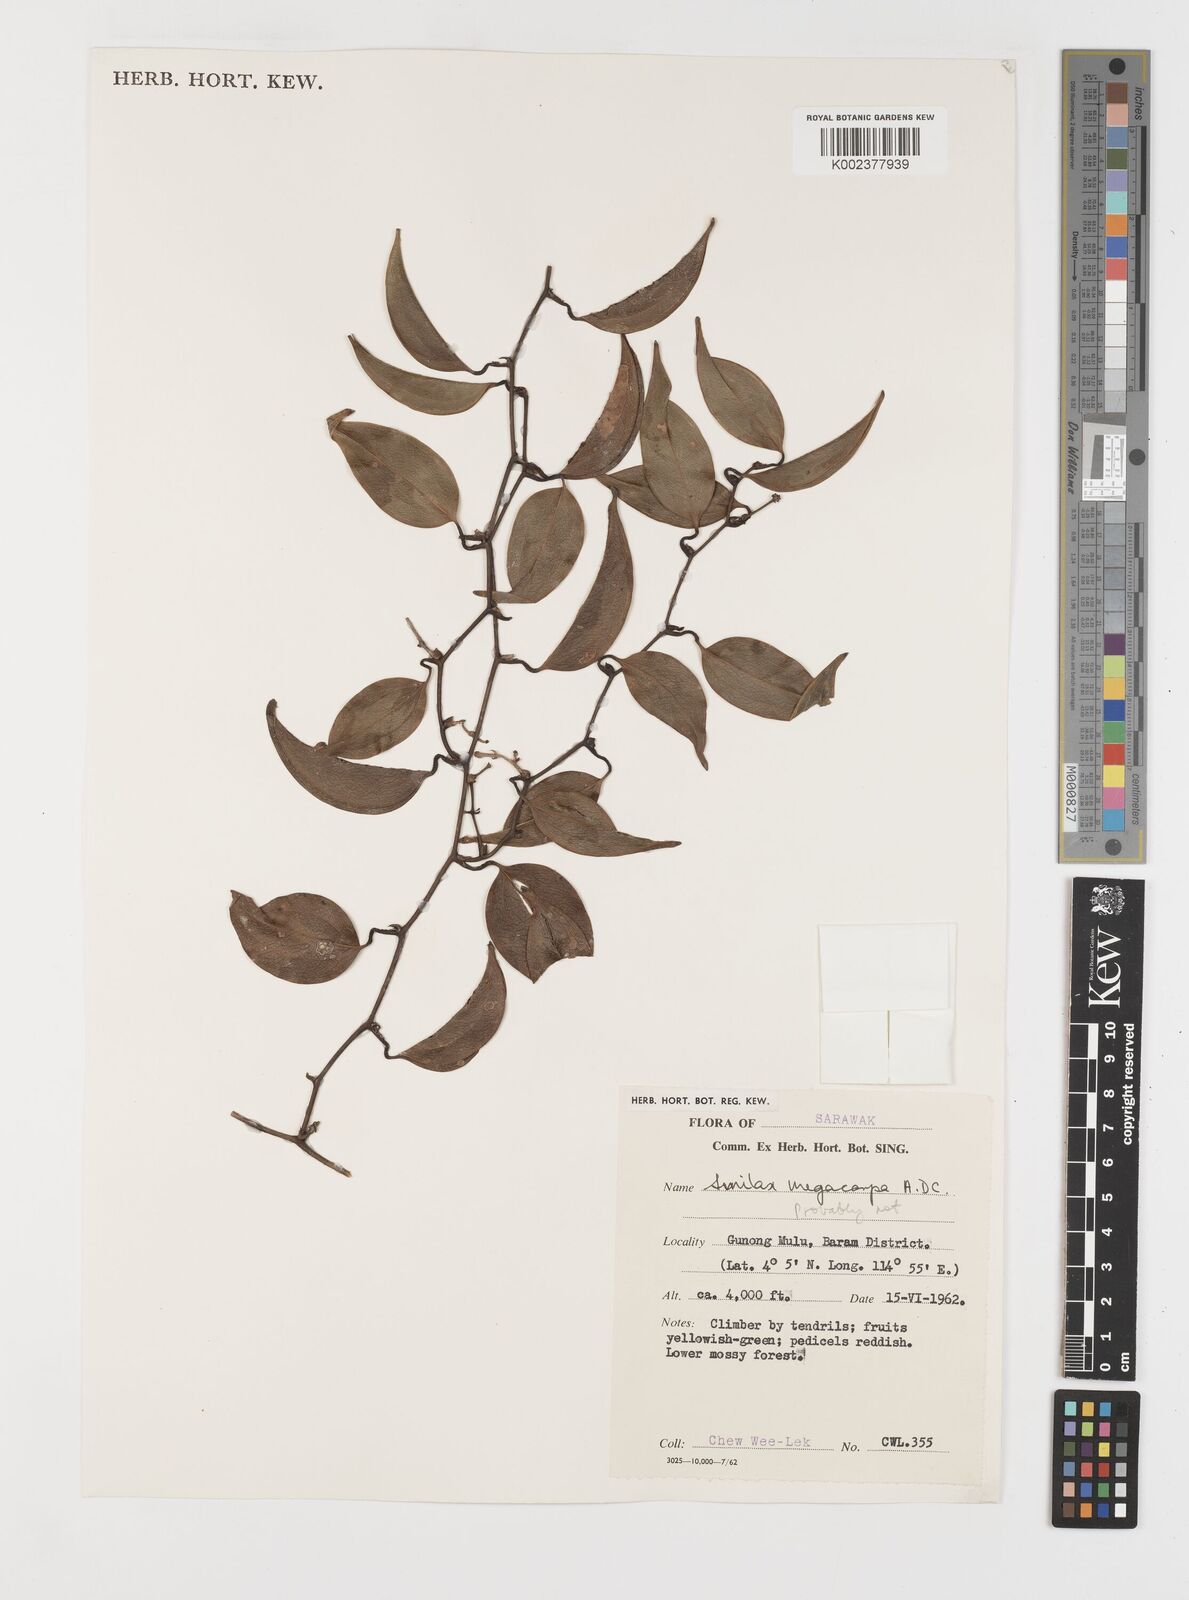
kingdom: Plantae
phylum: Tracheophyta
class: Liliopsida
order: Liliales
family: Smilacaceae
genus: Smilax
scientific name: Smilax
